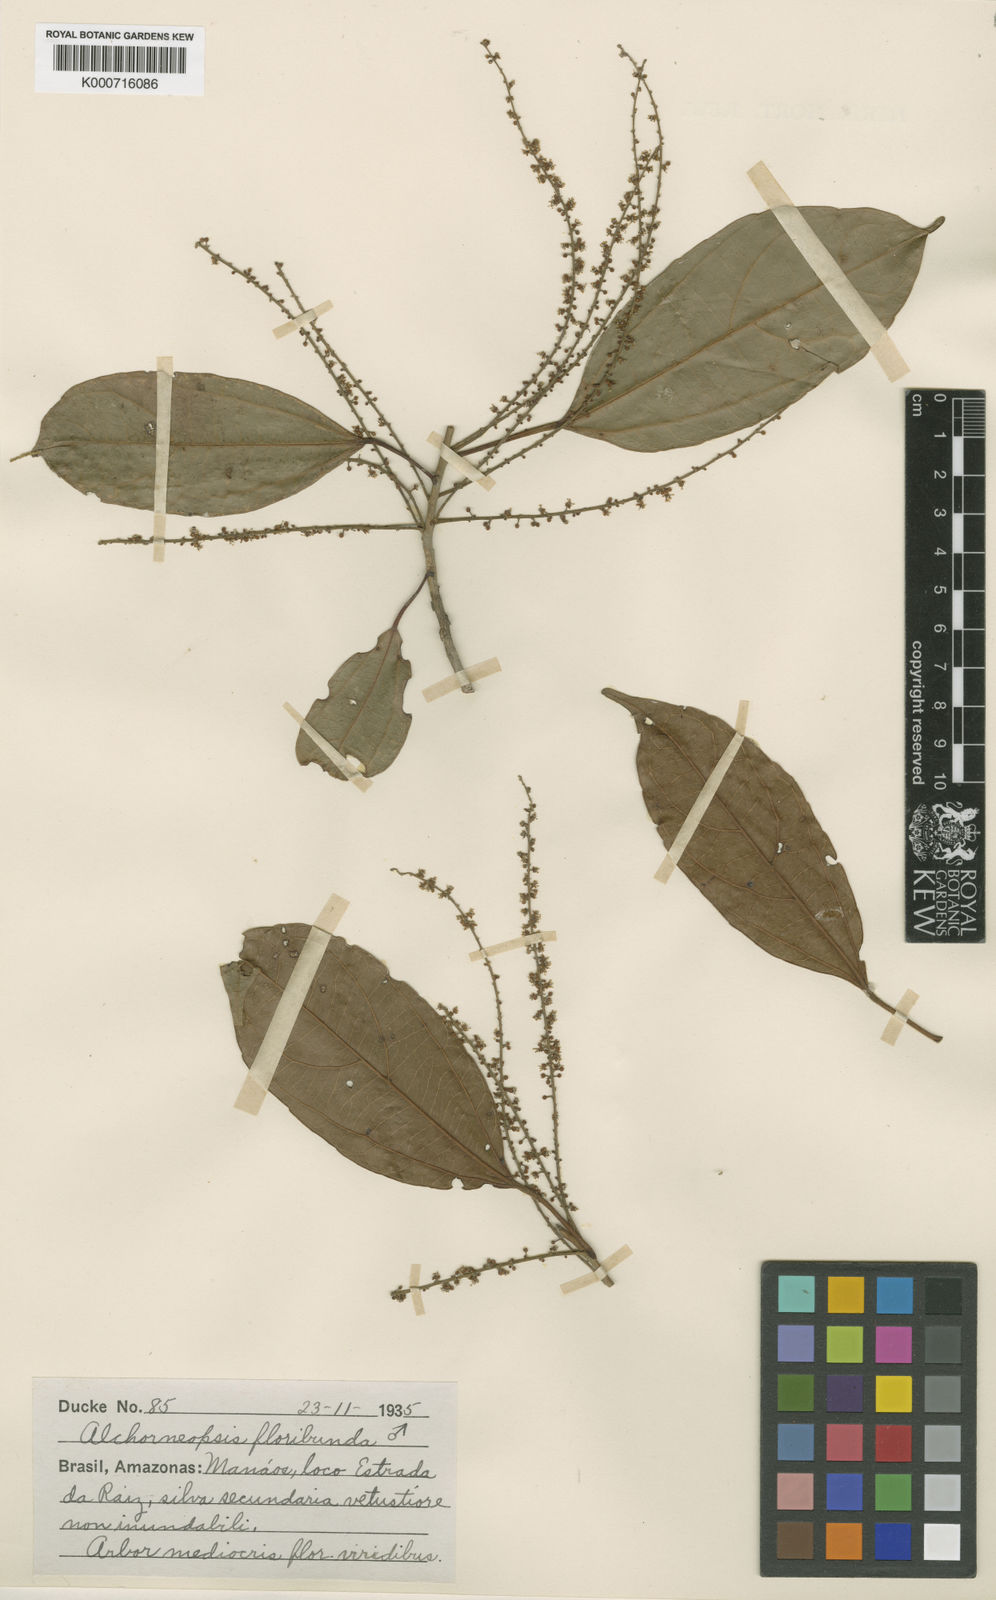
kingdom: Plantae
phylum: Tracheophyta
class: Magnoliopsida
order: Malpighiales
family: Euphorbiaceae
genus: Alchorneopsis
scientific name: Alchorneopsis
